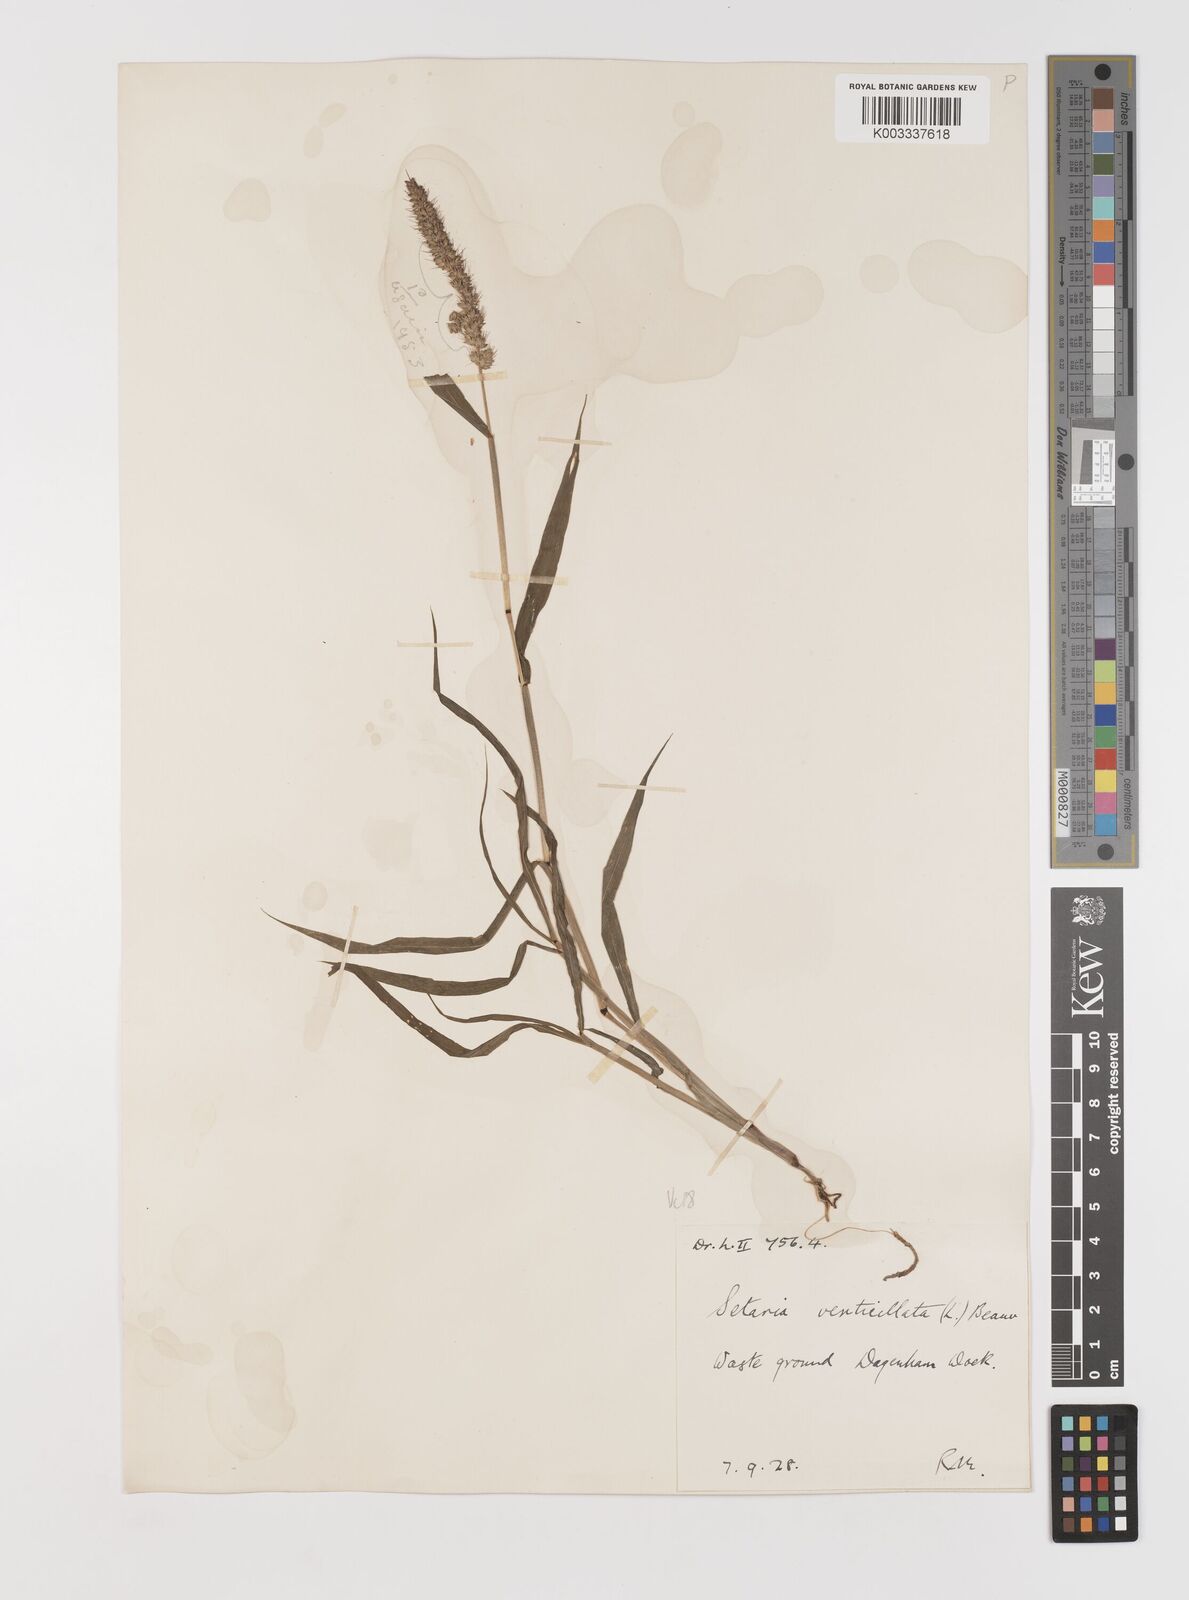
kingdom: Plantae
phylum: Tracheophyta
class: Liliopsida
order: Poales
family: Poaceae
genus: Setaria
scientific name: Setaria verticillata
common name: Hooked bristlegrass
